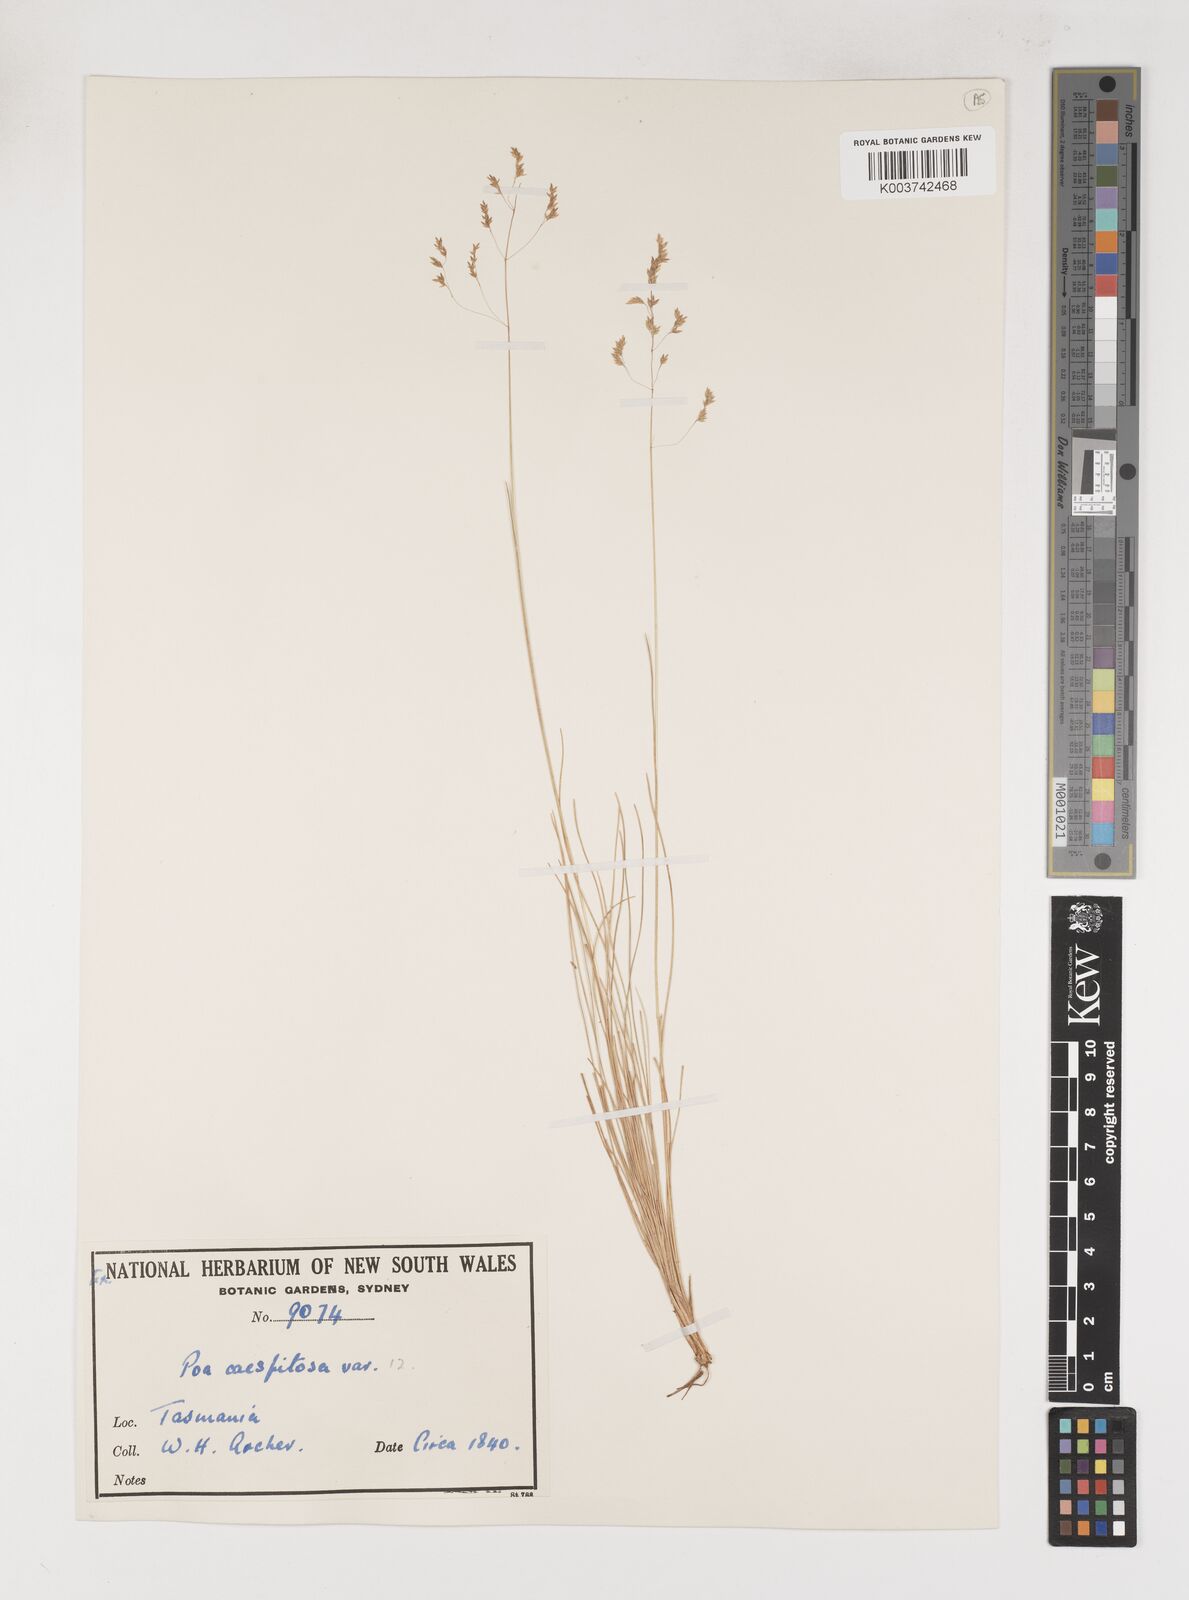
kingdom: Plantae
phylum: Tracheophyta
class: Liliopsida
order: Poales
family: Poaceae
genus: Poa
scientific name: Poa
